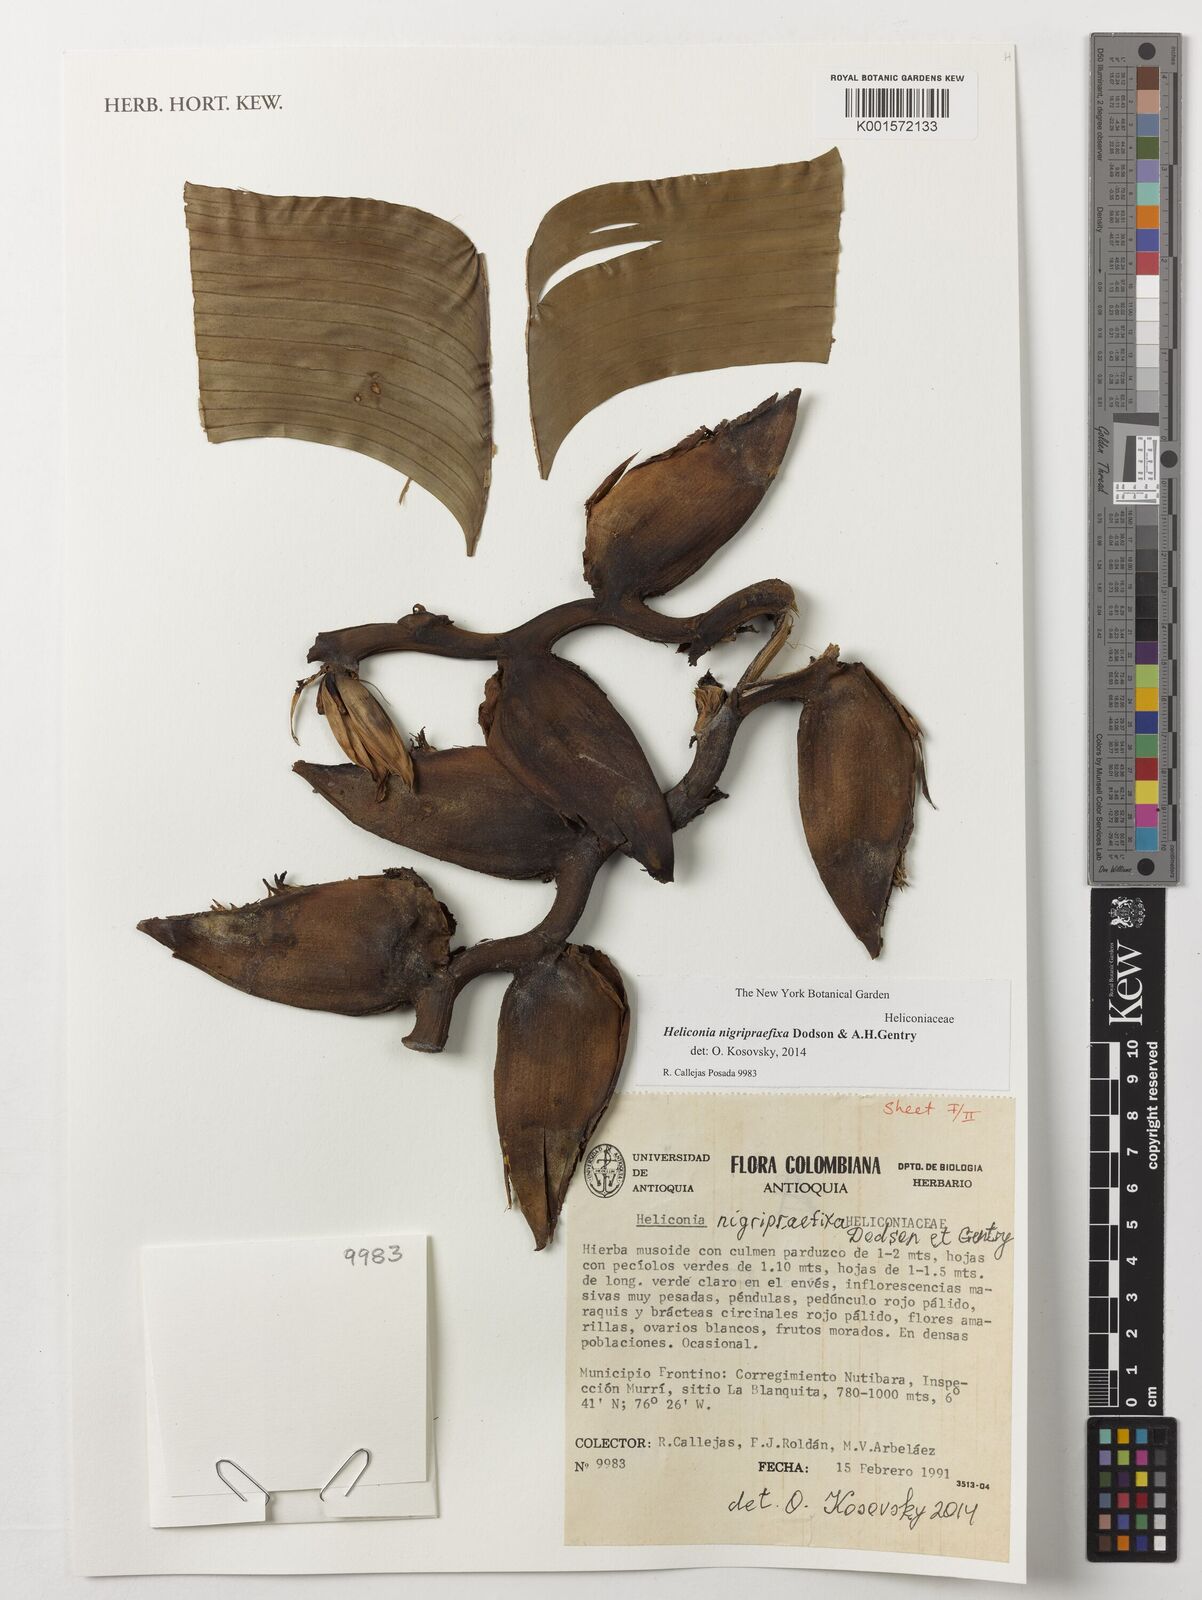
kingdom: Plantae
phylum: Tracheophyta
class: Liliopsida
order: Zingiberales
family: Heliconiaceae
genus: Heliconia
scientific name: Heliconia nigripraefixa
